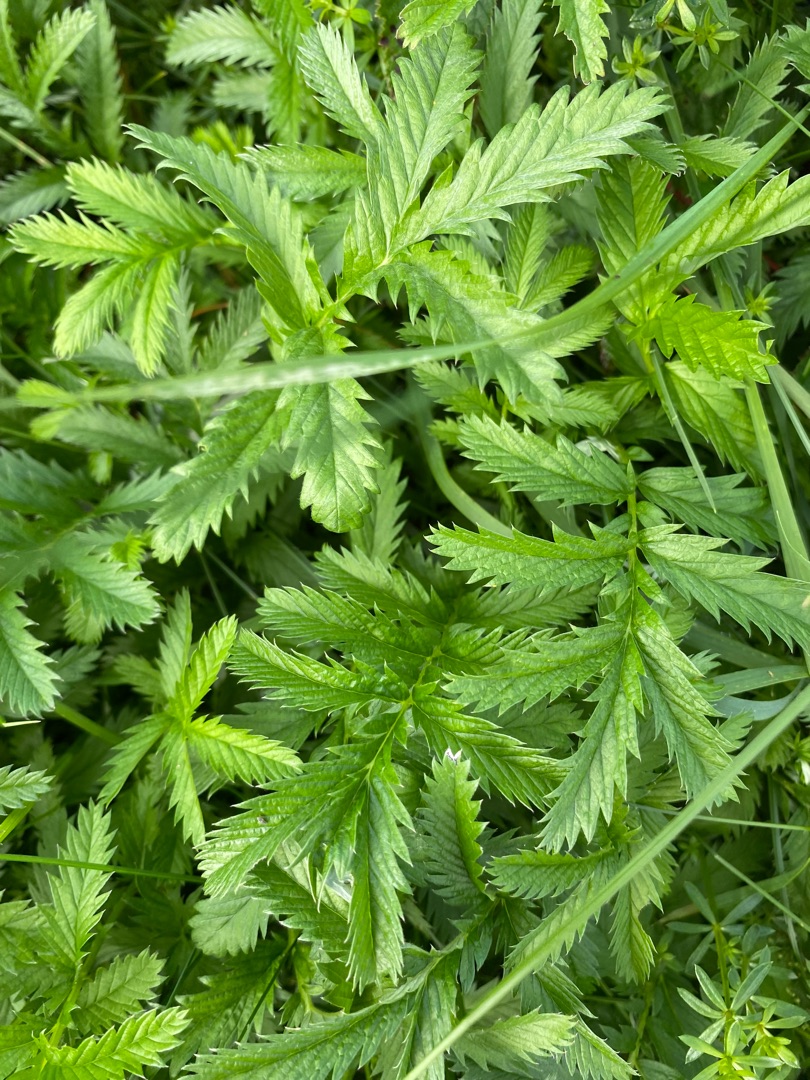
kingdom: Plantae
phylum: Tracheophyta
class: Magnoliopsida
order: Rosales
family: Rosaceae
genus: Argentina
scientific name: Argentina anserina
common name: Gåsepotentil
